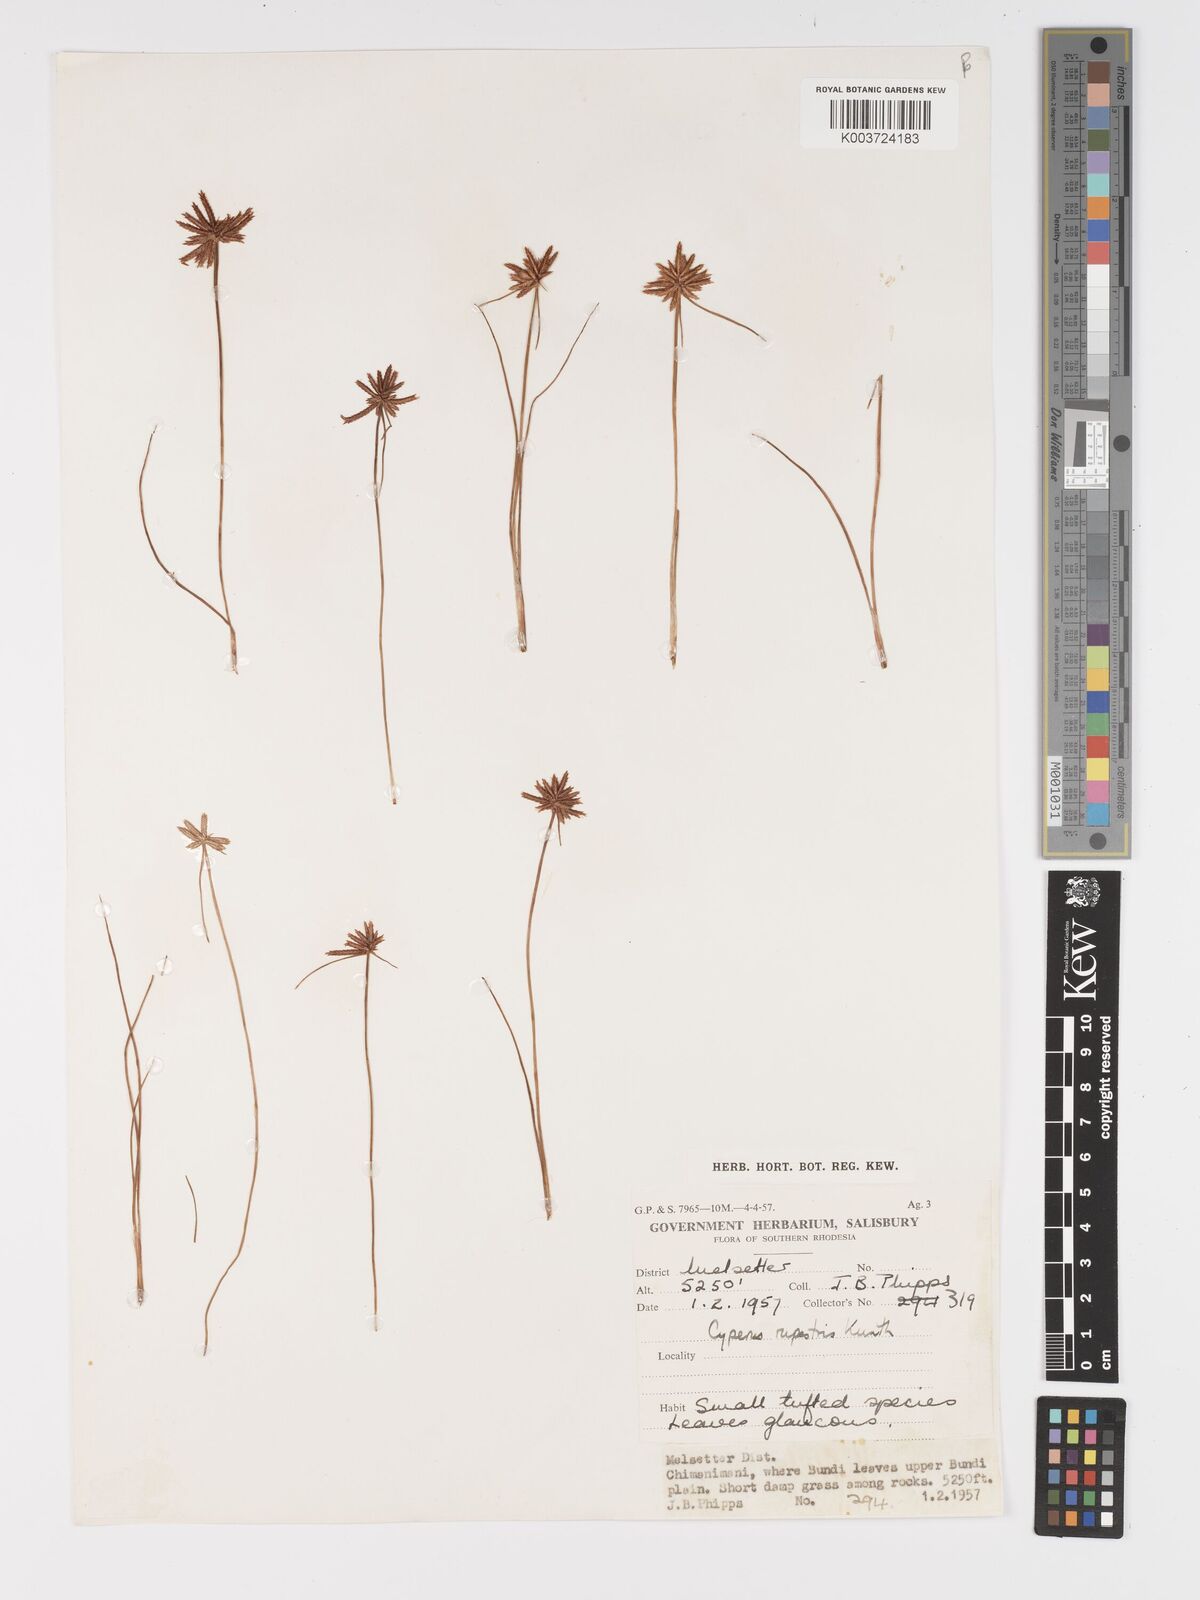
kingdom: Plantae
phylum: Tracheophyta
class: Liliopsida
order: Poales
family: Cyperaceae
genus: Cyperus
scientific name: Cyperus rupestris
